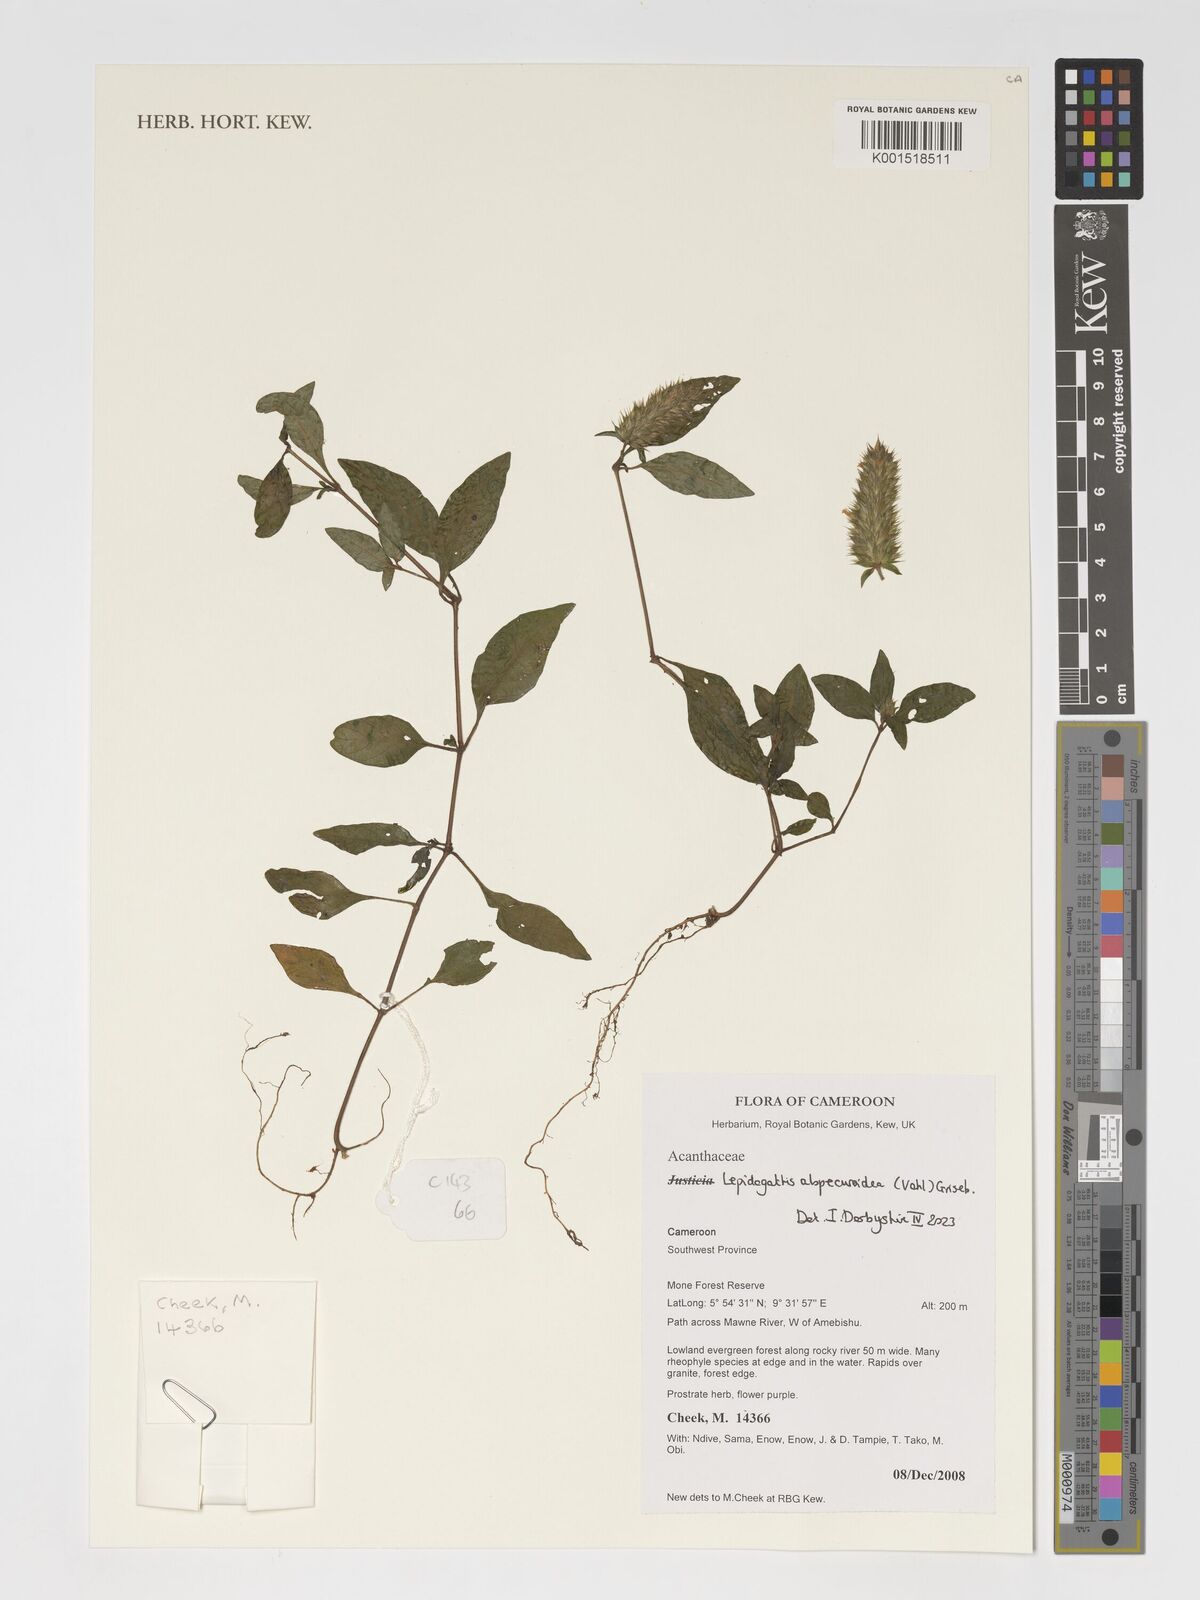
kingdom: Plantae
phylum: Tracheophyta
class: Magnoliopsida
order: Lamiales
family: Acanthaceae
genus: Lepidagathis
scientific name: Lepidagathis alopecuroidea
